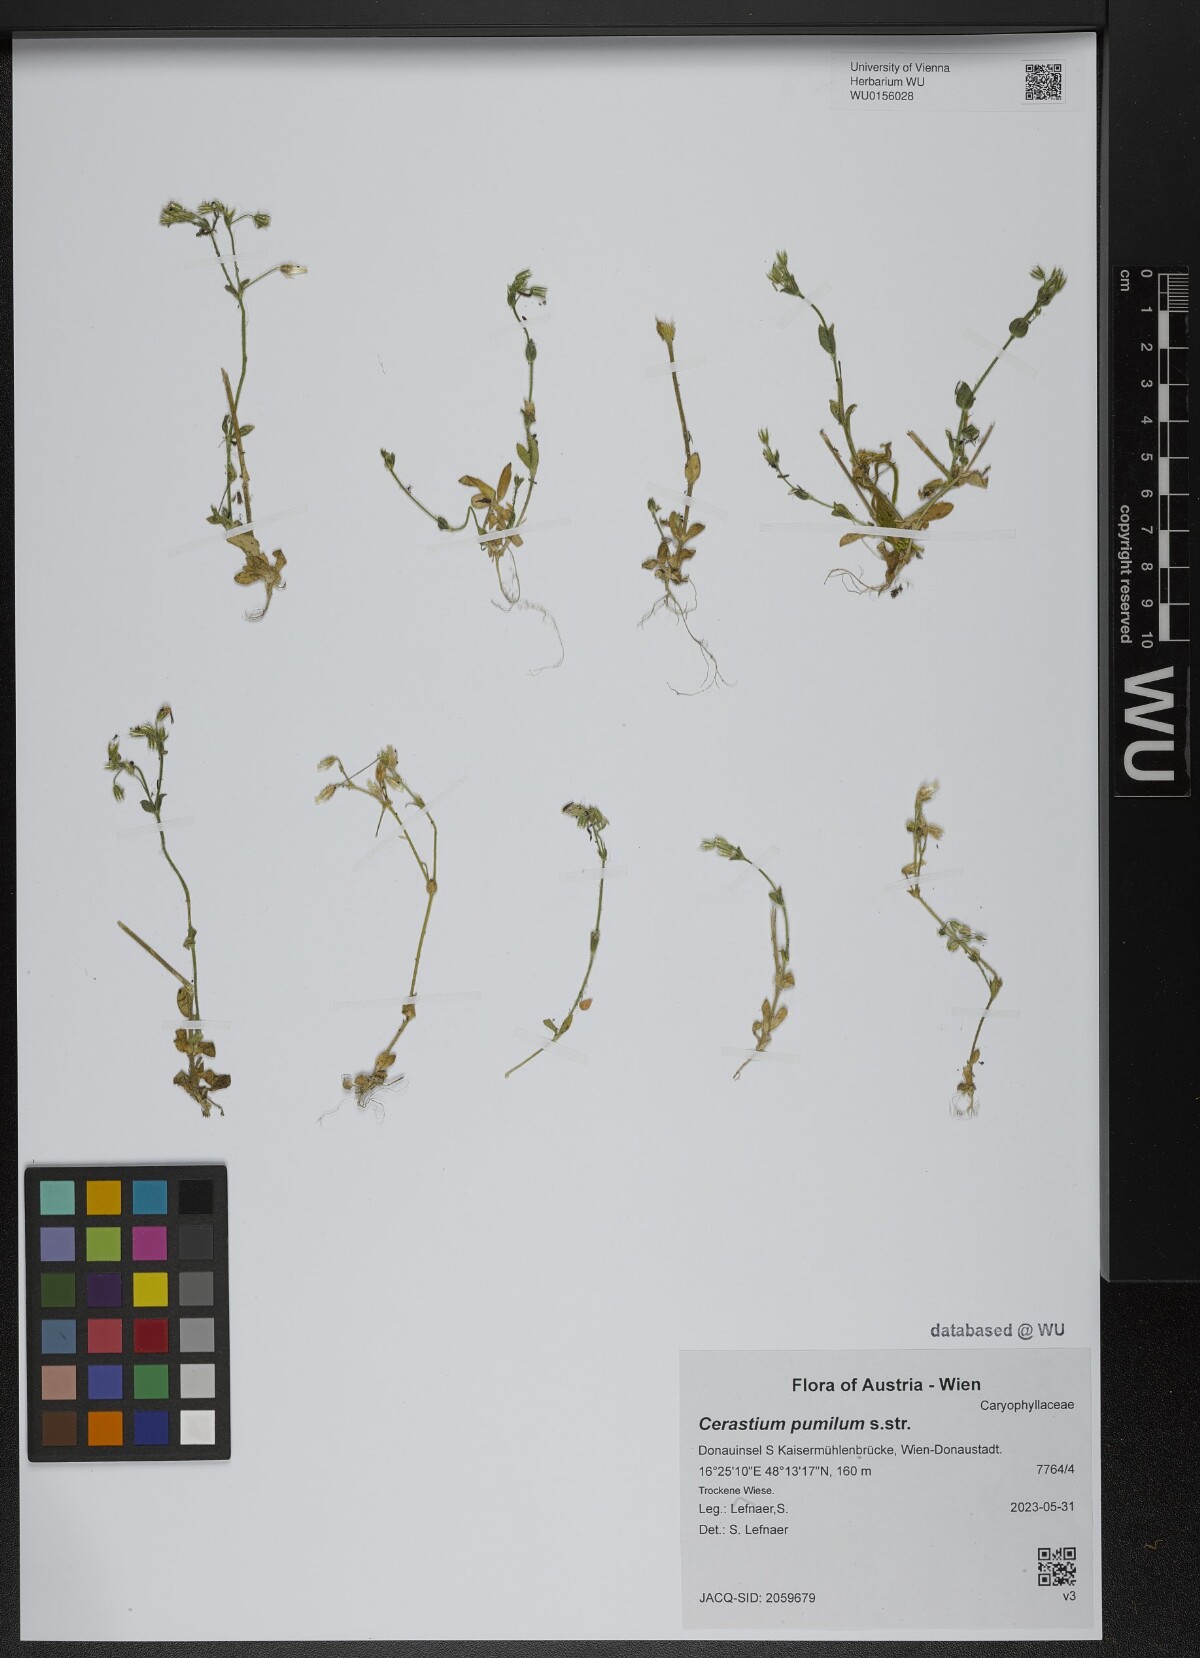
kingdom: Plantae
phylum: Tracheophyta
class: Magnoliopsida
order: Caryophyllales
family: Caryophyllaceae
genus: Cerastium
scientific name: Cerastium pumilum
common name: Dwarf mouse-ear
